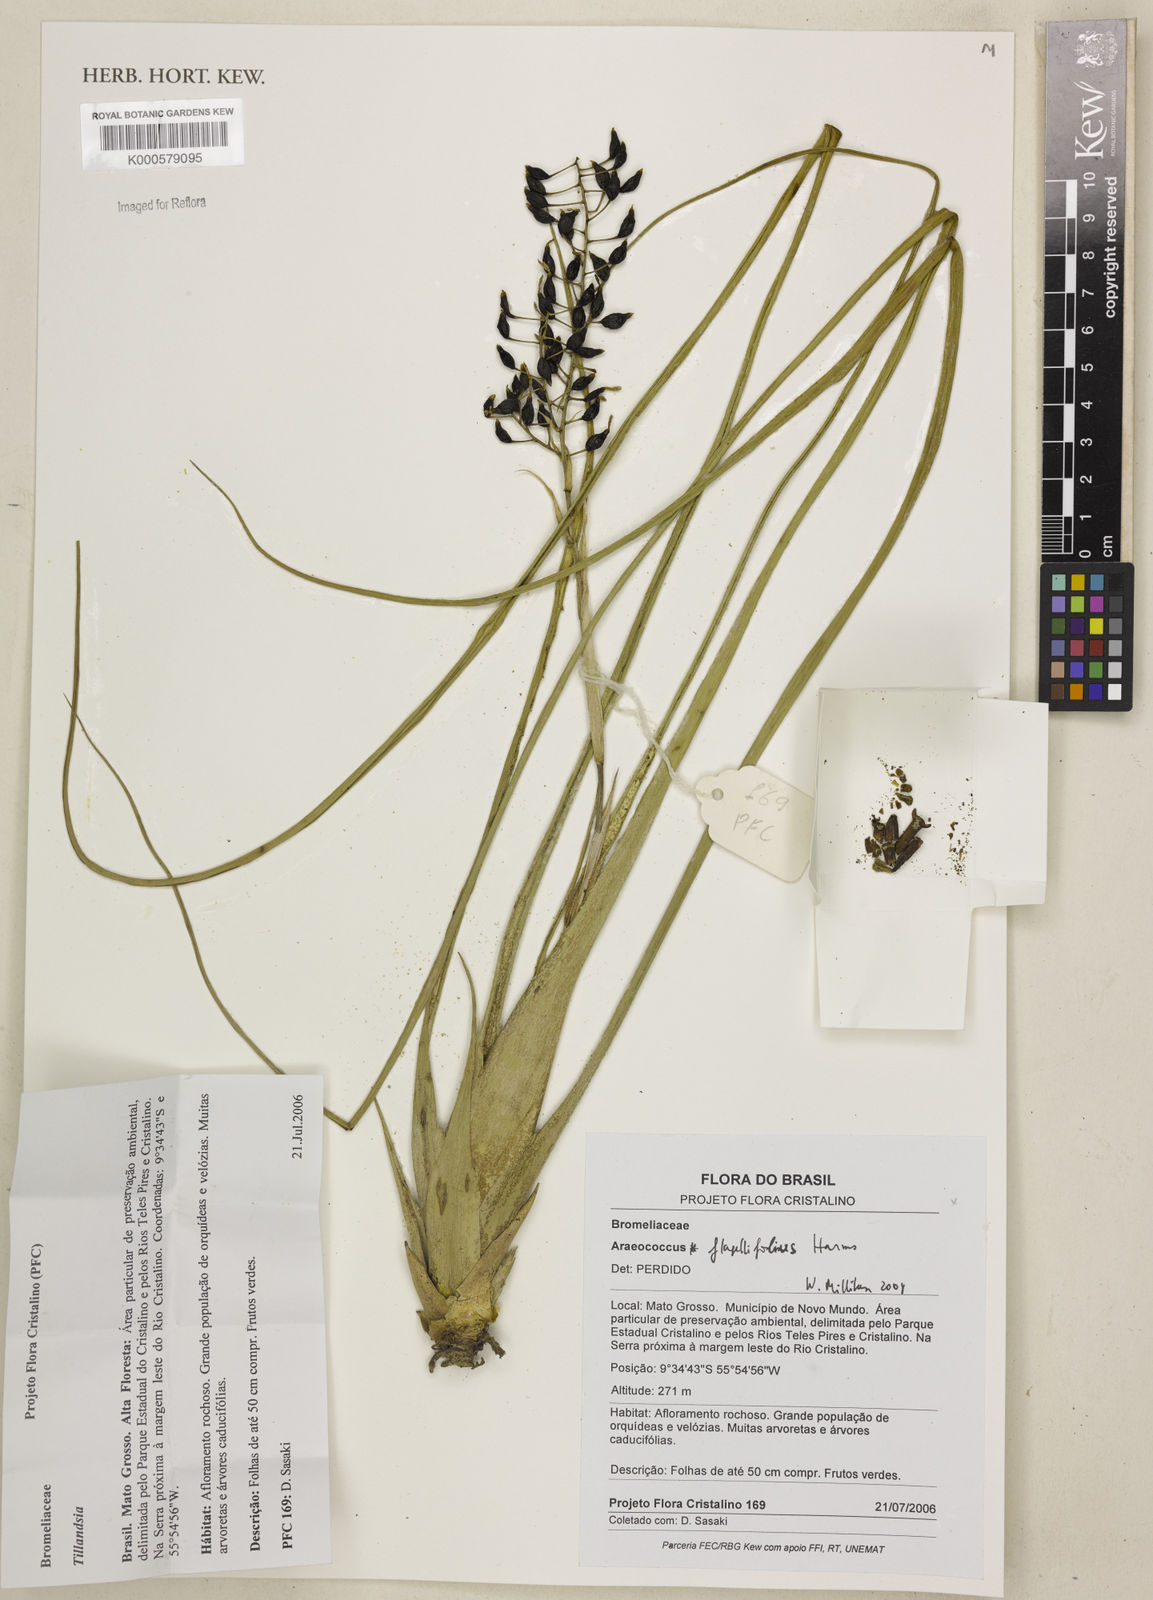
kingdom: Plantae
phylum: Tracheophyta
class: Liliopsida
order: Poales
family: Bromeliaceae
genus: Araeococcus
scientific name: Araeococcus flagellifolius
